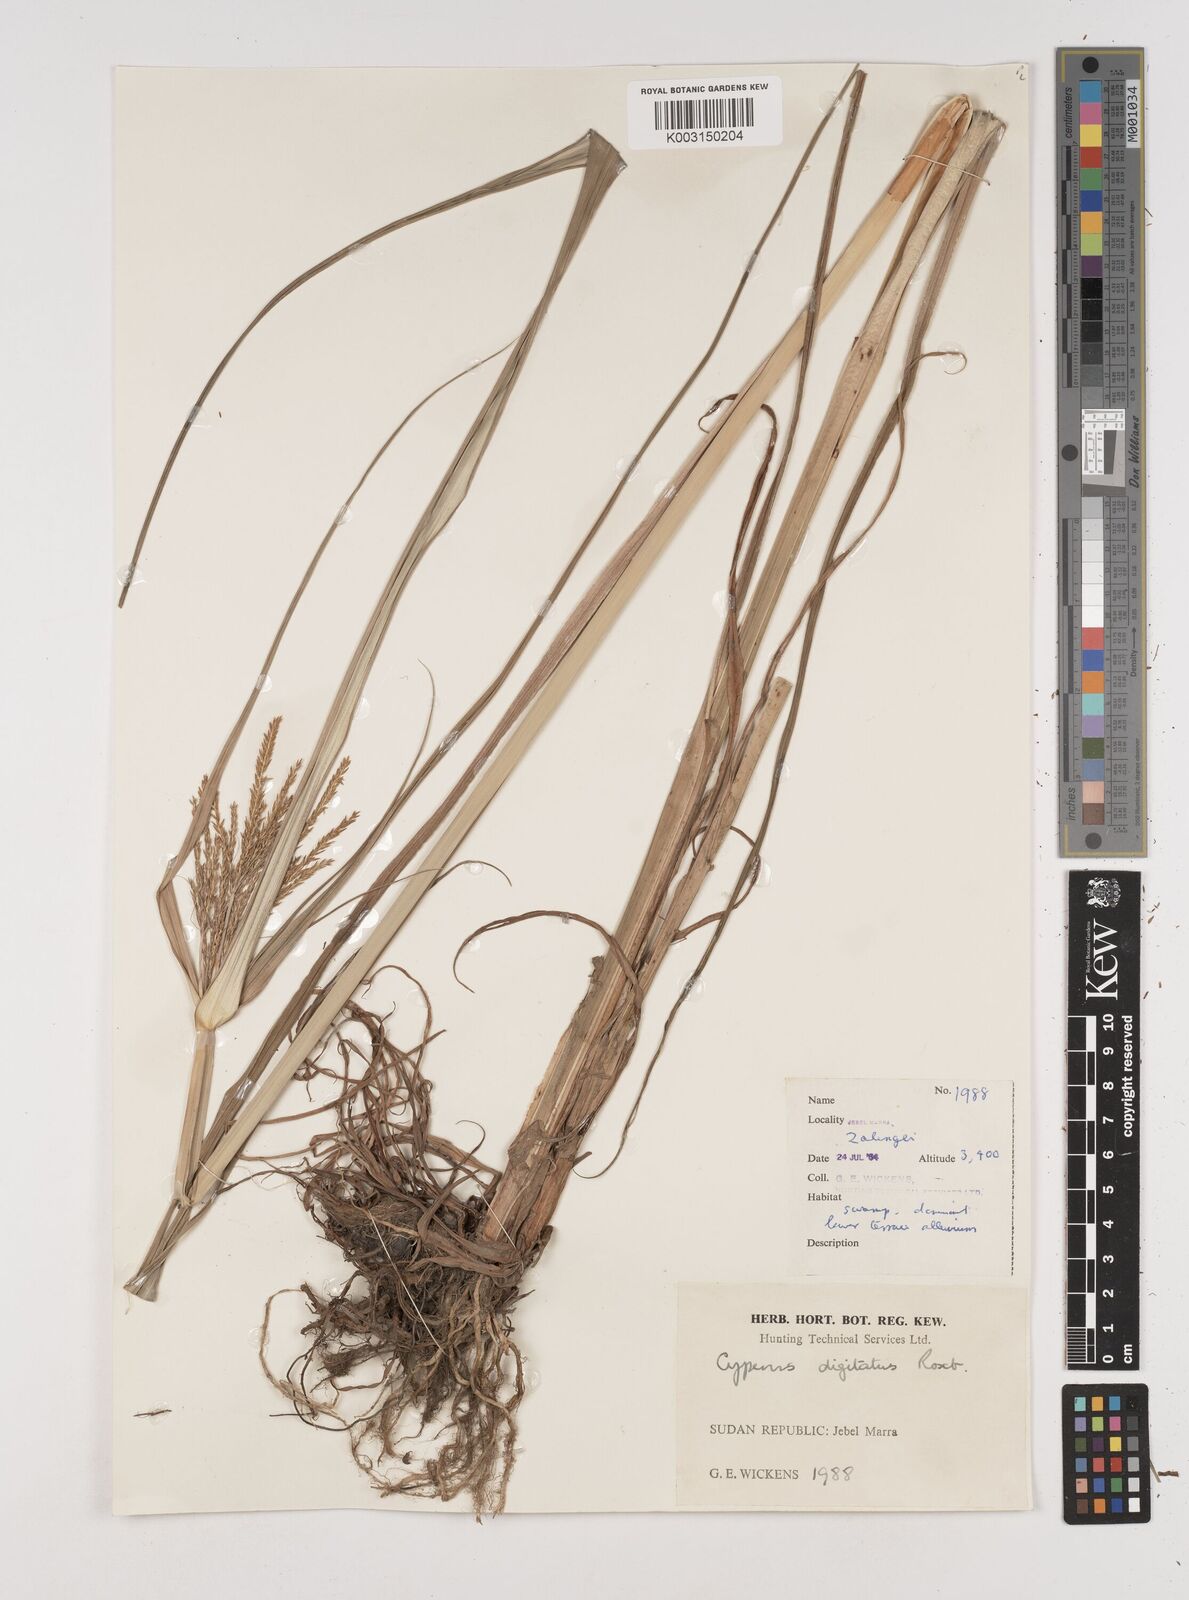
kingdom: Plantae
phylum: Tracheophyta
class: Liliopsida
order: Poales
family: Cyperaceae
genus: Cyperus
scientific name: Cyperus digitatus
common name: Finger flatsedge
